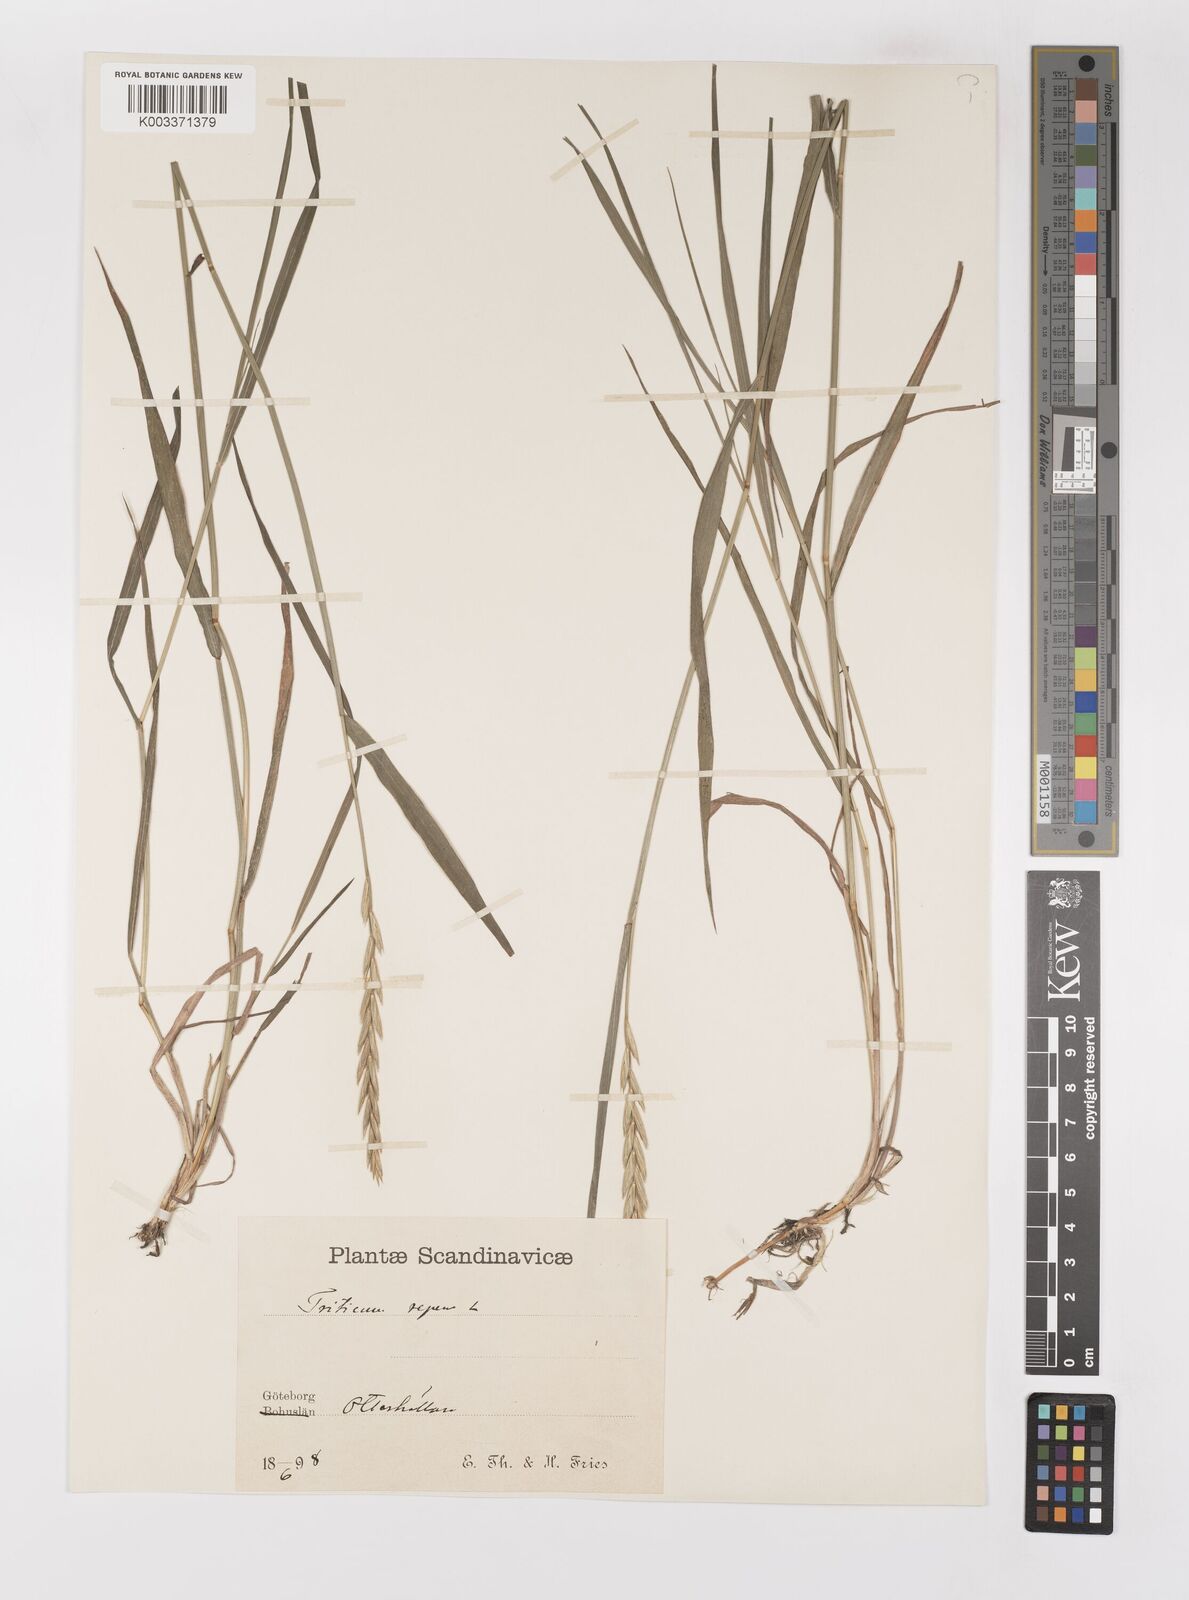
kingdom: Plantae
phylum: Tracheophyta
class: Liliopsida
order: Poales
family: Poaceae
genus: Elymus
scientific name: Elymus repens
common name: Quackgrass
